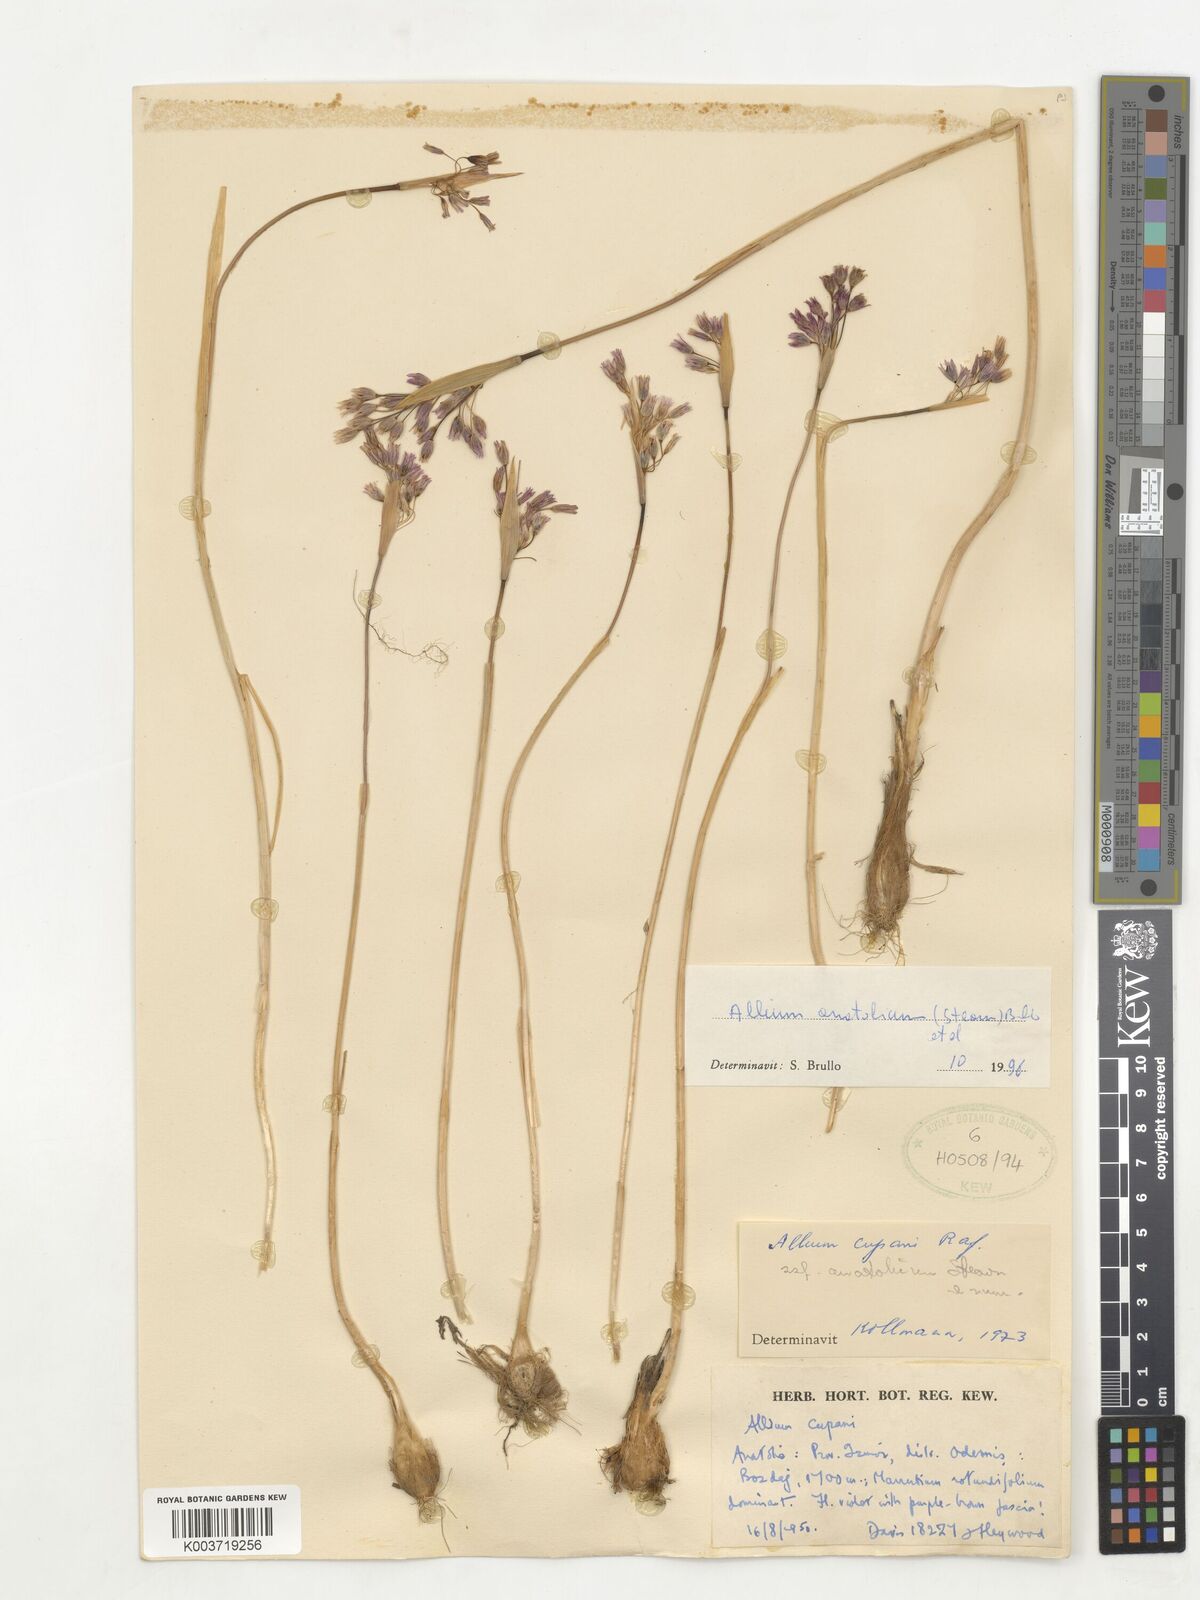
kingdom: Plantae
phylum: Tracheophyta
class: Liliopsida
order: Asparagales
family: Amaryllidaceae
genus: Allium
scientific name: Allium anatolicum
